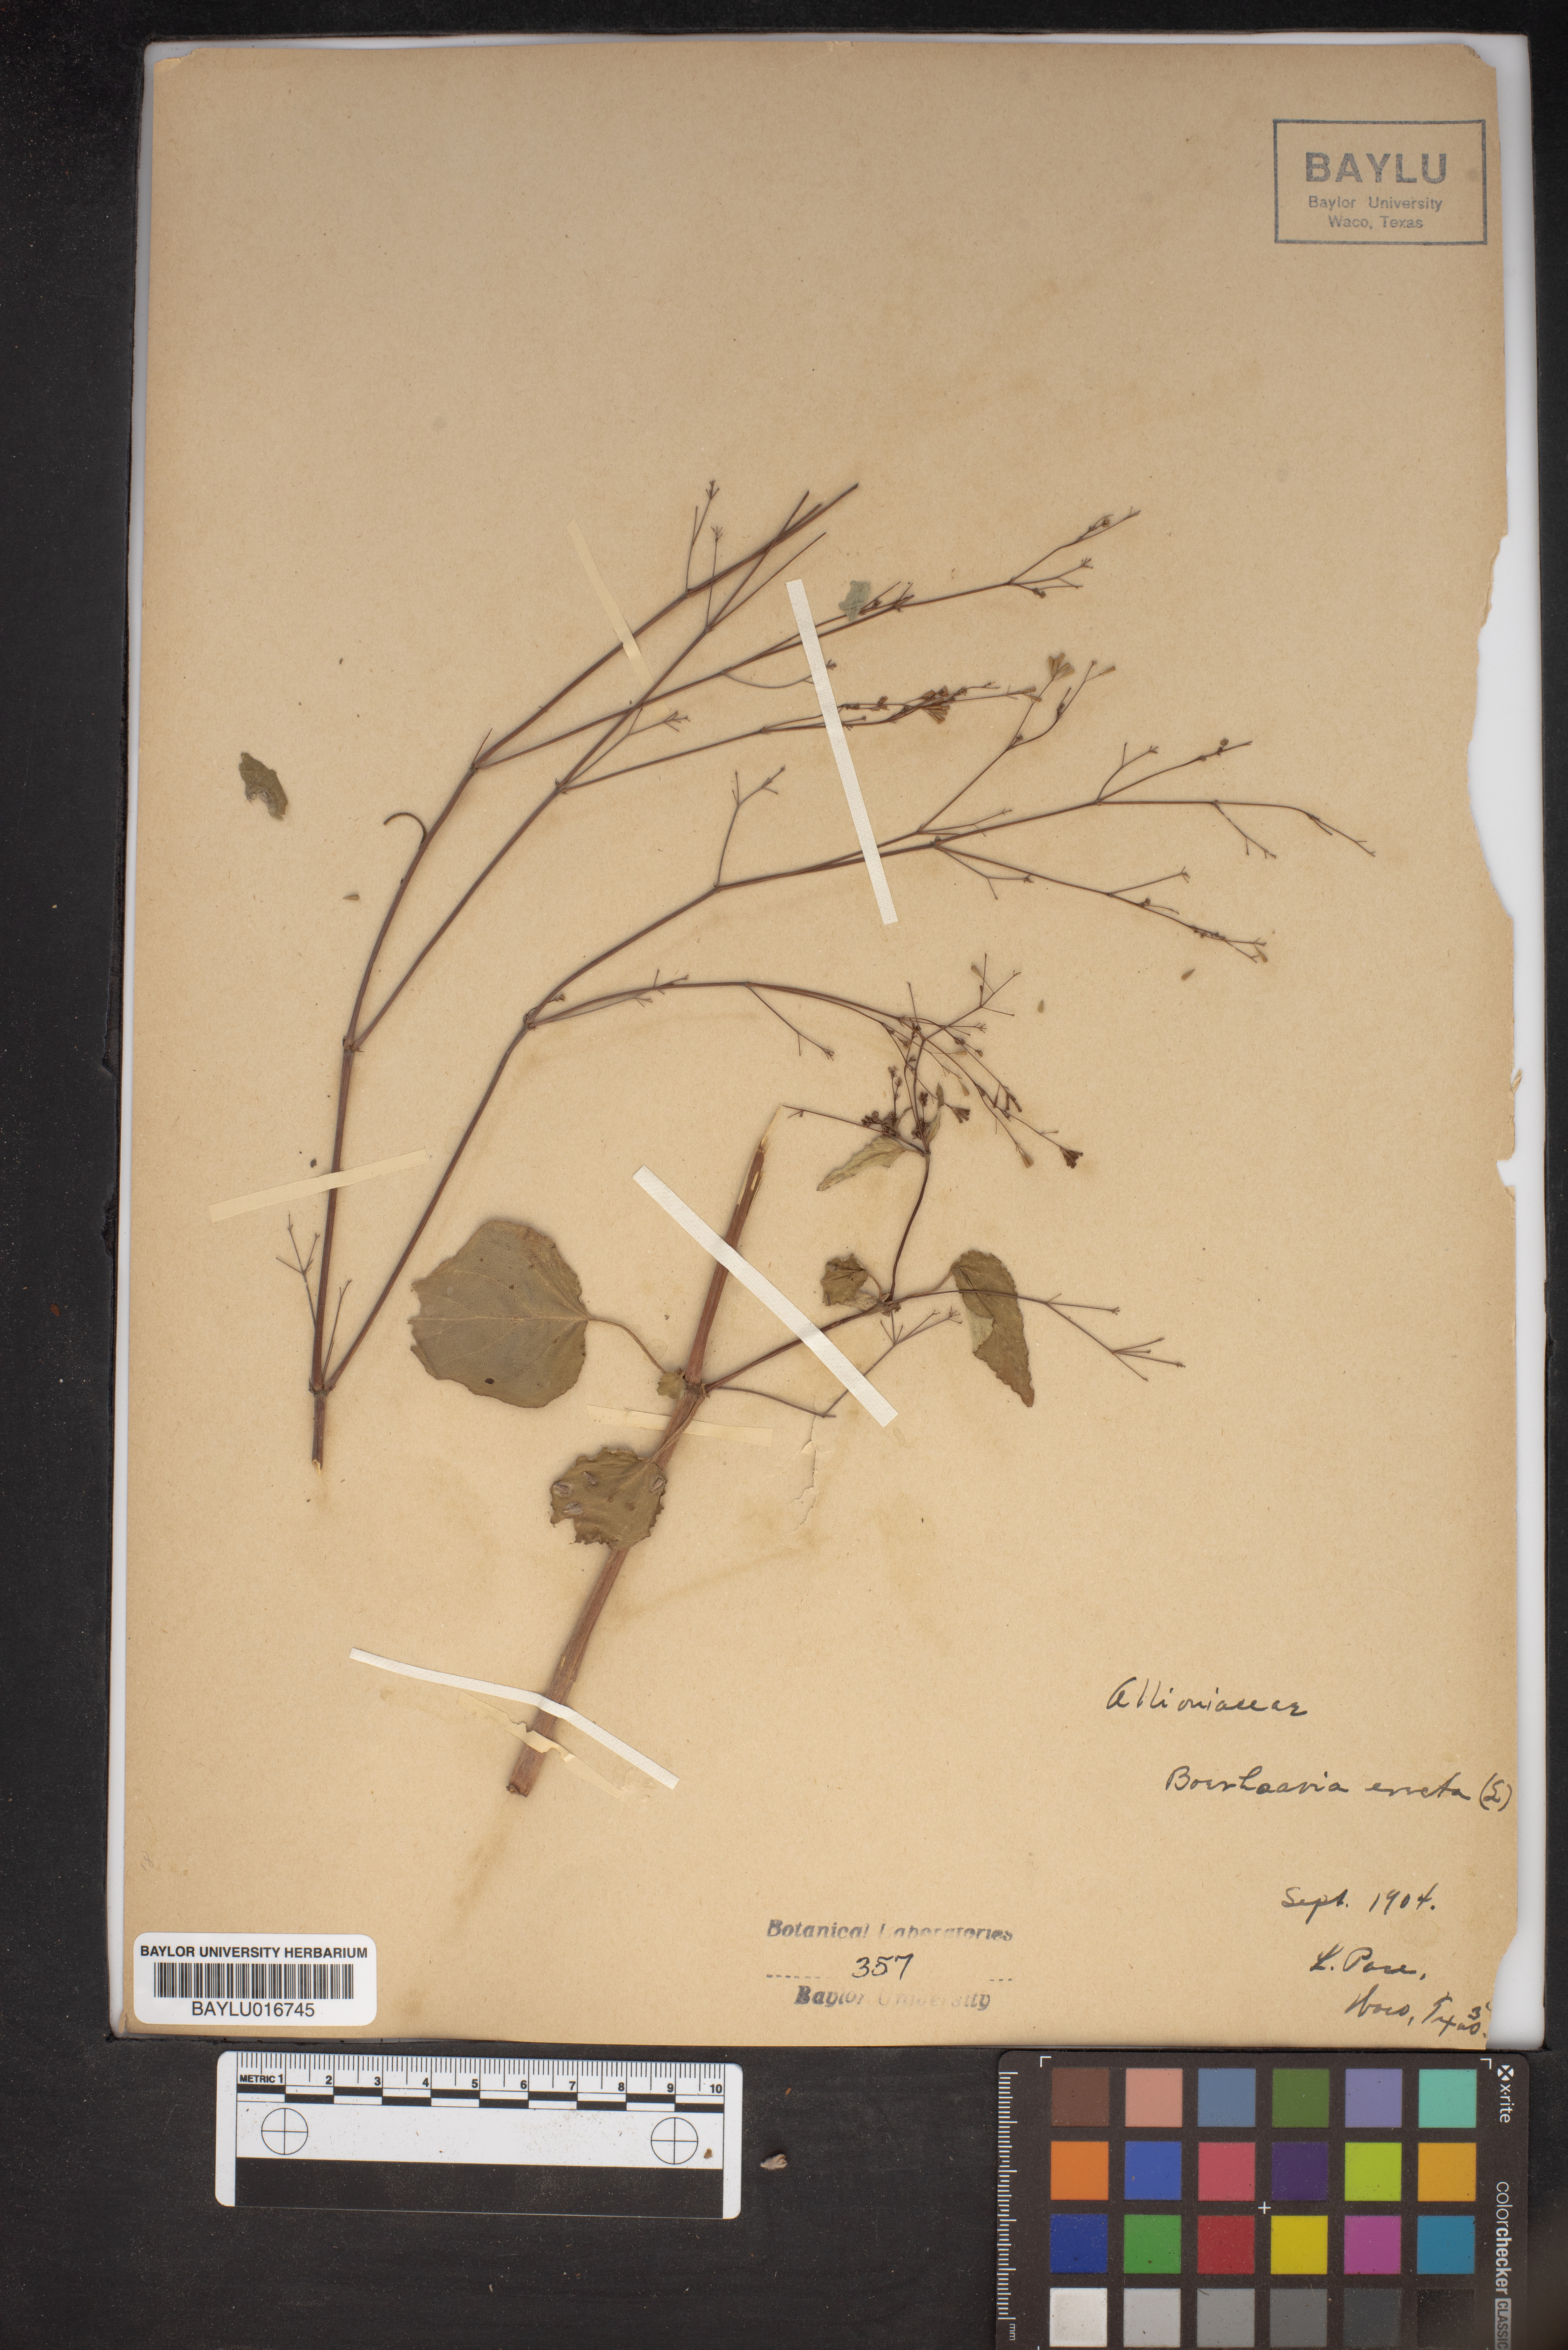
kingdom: Plantae
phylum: Tracheophyta
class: Magnoliopsida
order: Caryophyllales
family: Nyctaginaceae
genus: Boerhavia
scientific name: Boerhavia erecta
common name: Erect spiderling
